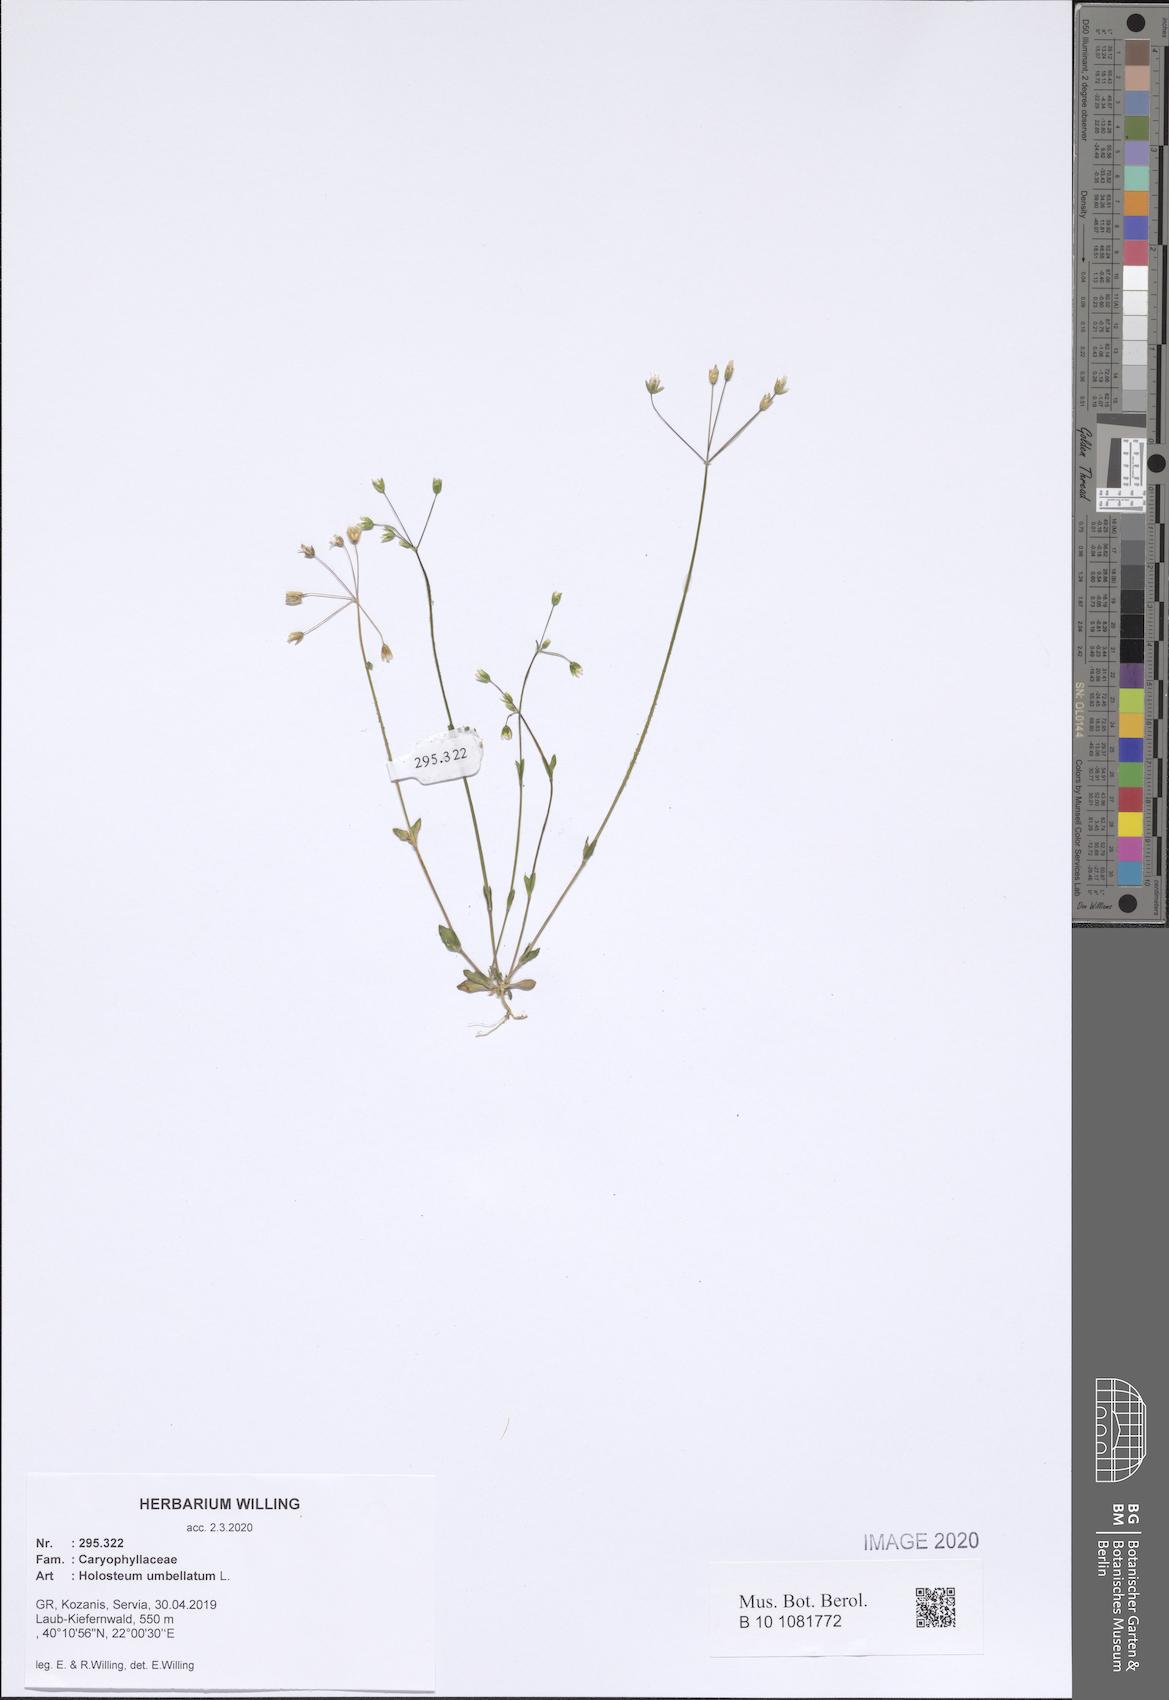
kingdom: Plantae
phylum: Tracheophyta
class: Magnoliopsida
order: Caryophyllales
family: Caryophyllaceae
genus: Holosteum
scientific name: Holosteum umbellatum
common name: Jagged chickweed
